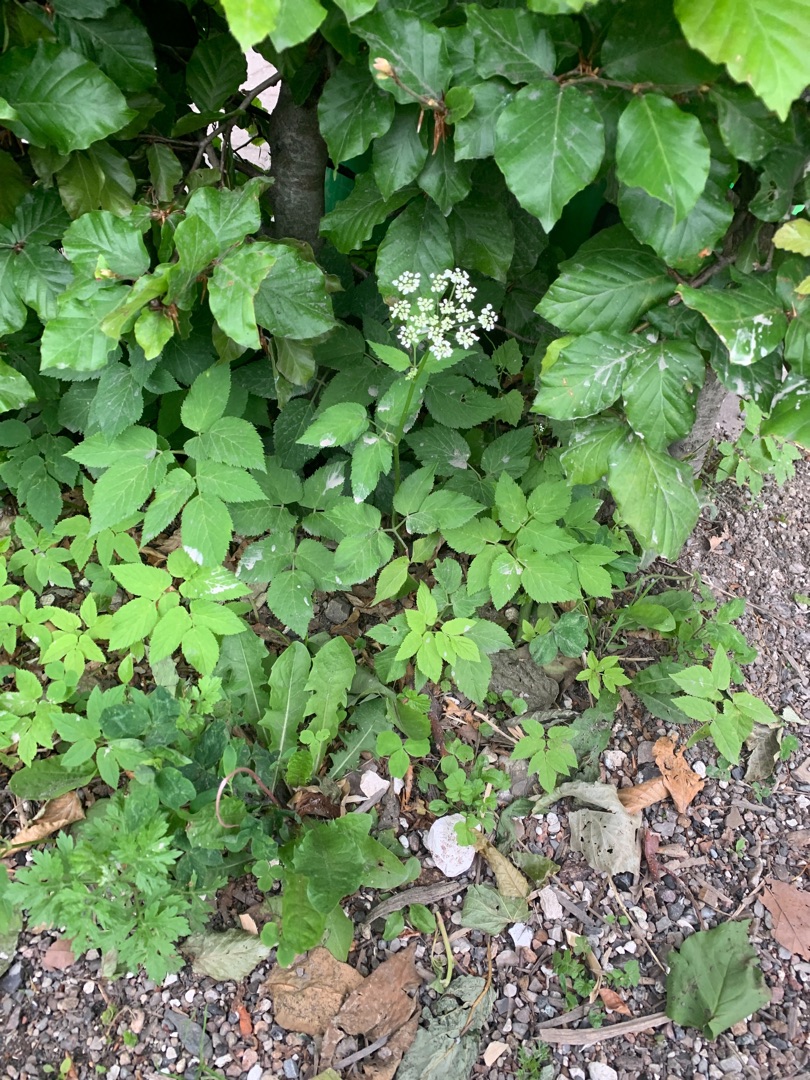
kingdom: Plantae
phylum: Tracheophyta
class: Magnoliopsida
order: Apiales
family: Apiaceae
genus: Aegopodium
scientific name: Aegopodium podagraria
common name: Skvalderkål
